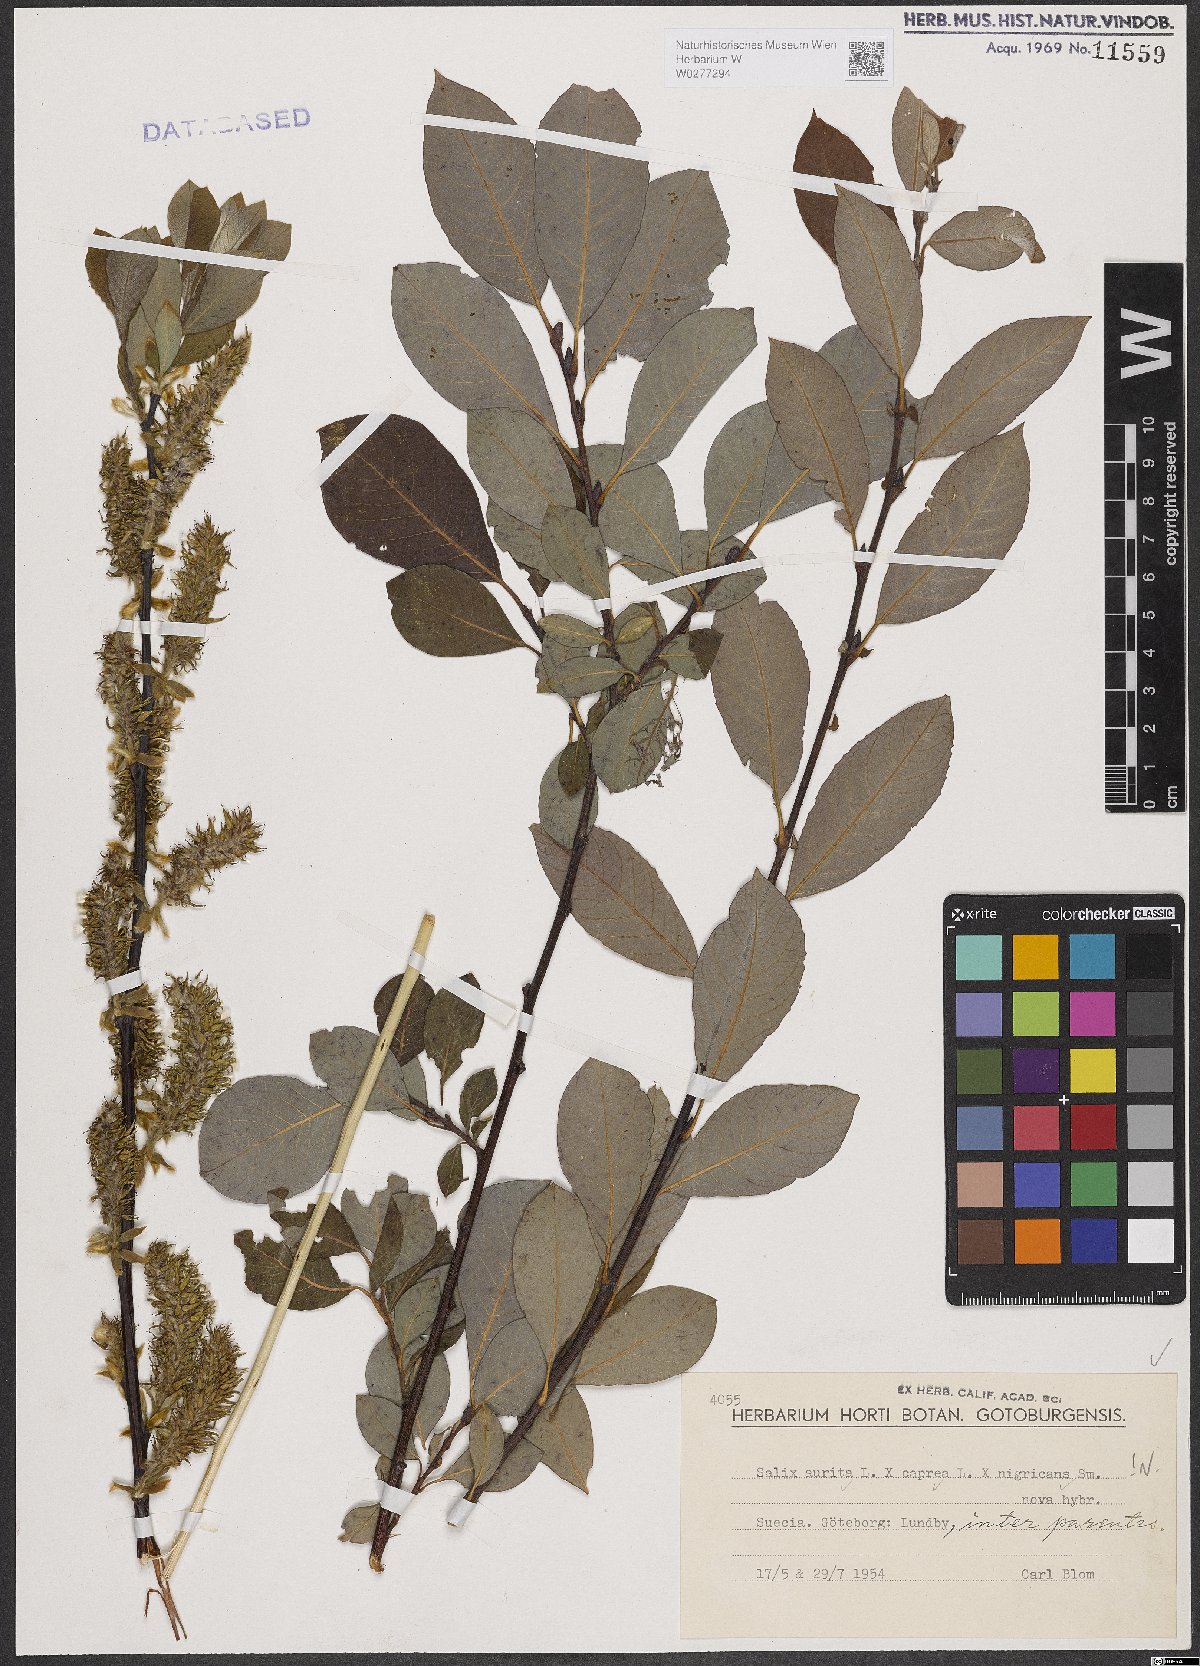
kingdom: Plantae
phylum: Tracheophyta
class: Magnoliopsida
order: Malpighiales
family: Salicaceae
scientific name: Salicaceae
